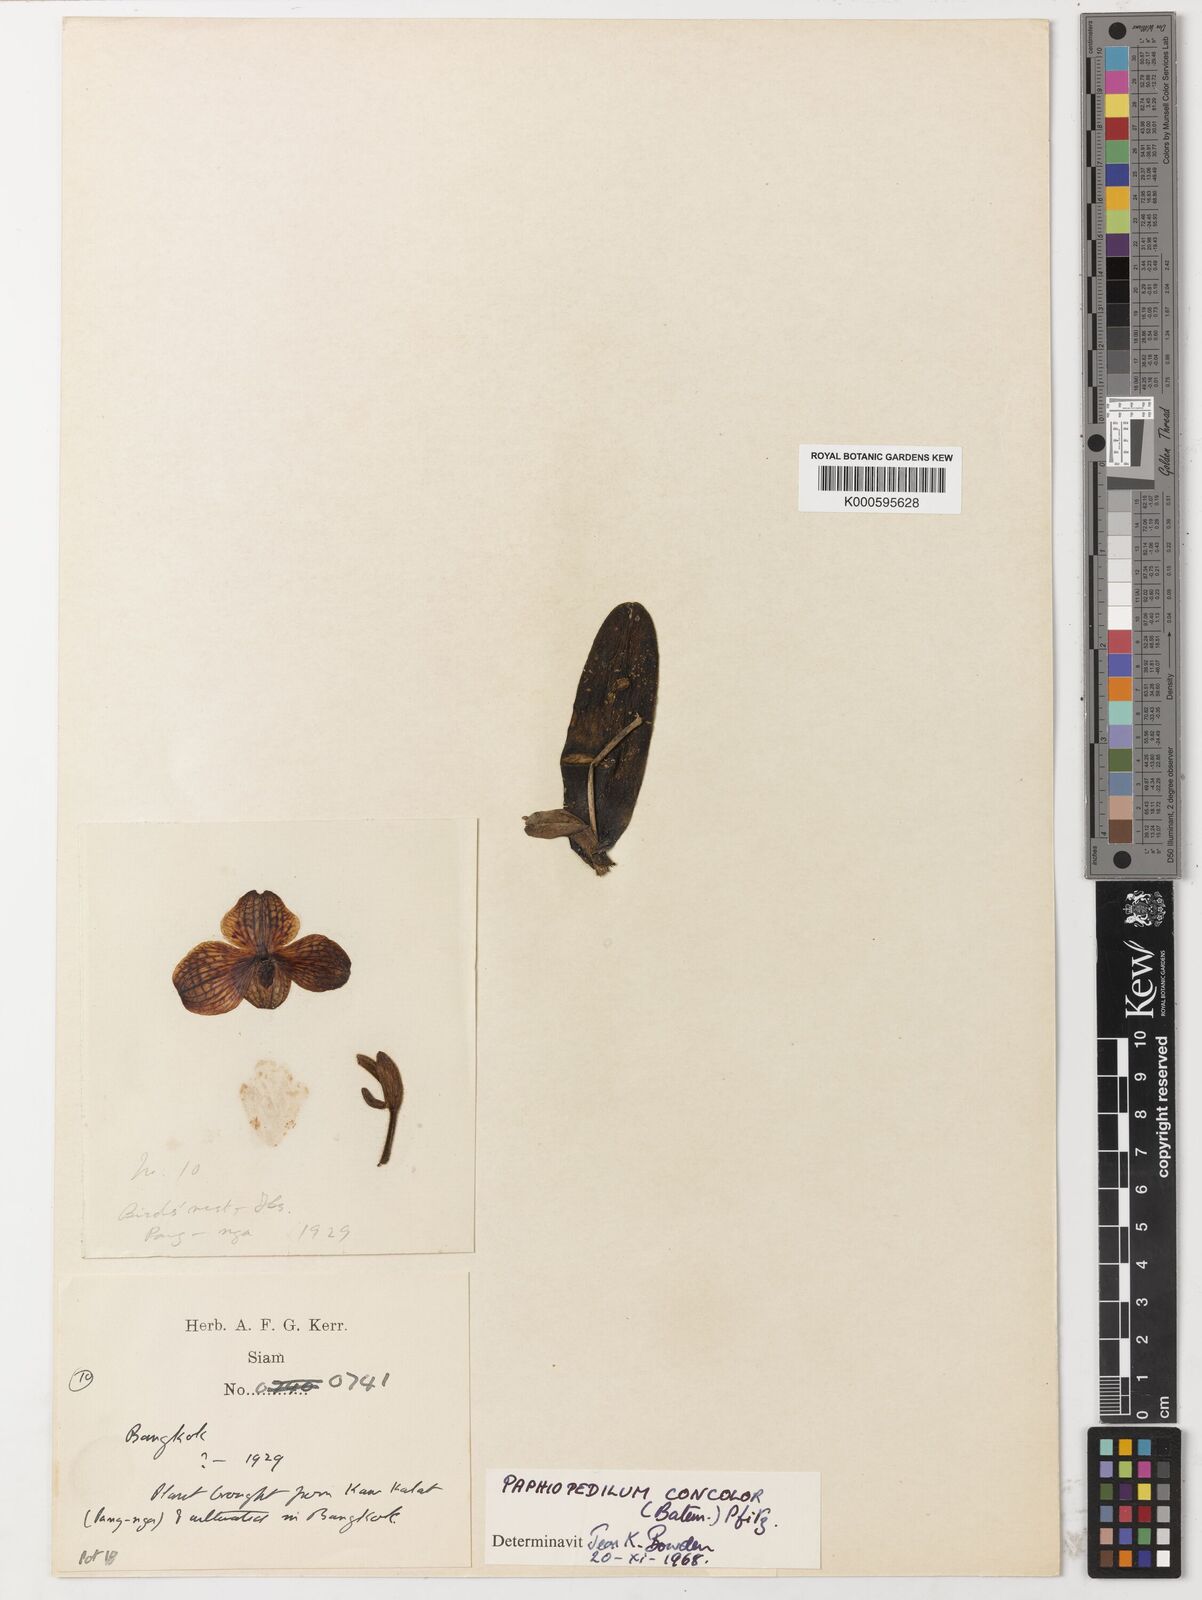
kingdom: Plantae
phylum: Tracheophyta
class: Liliopsida
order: Asparagales
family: Orchidaceae
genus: Paphiopedilum
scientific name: Paphiopedilum niveum
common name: Snow-white paphiopedilum
